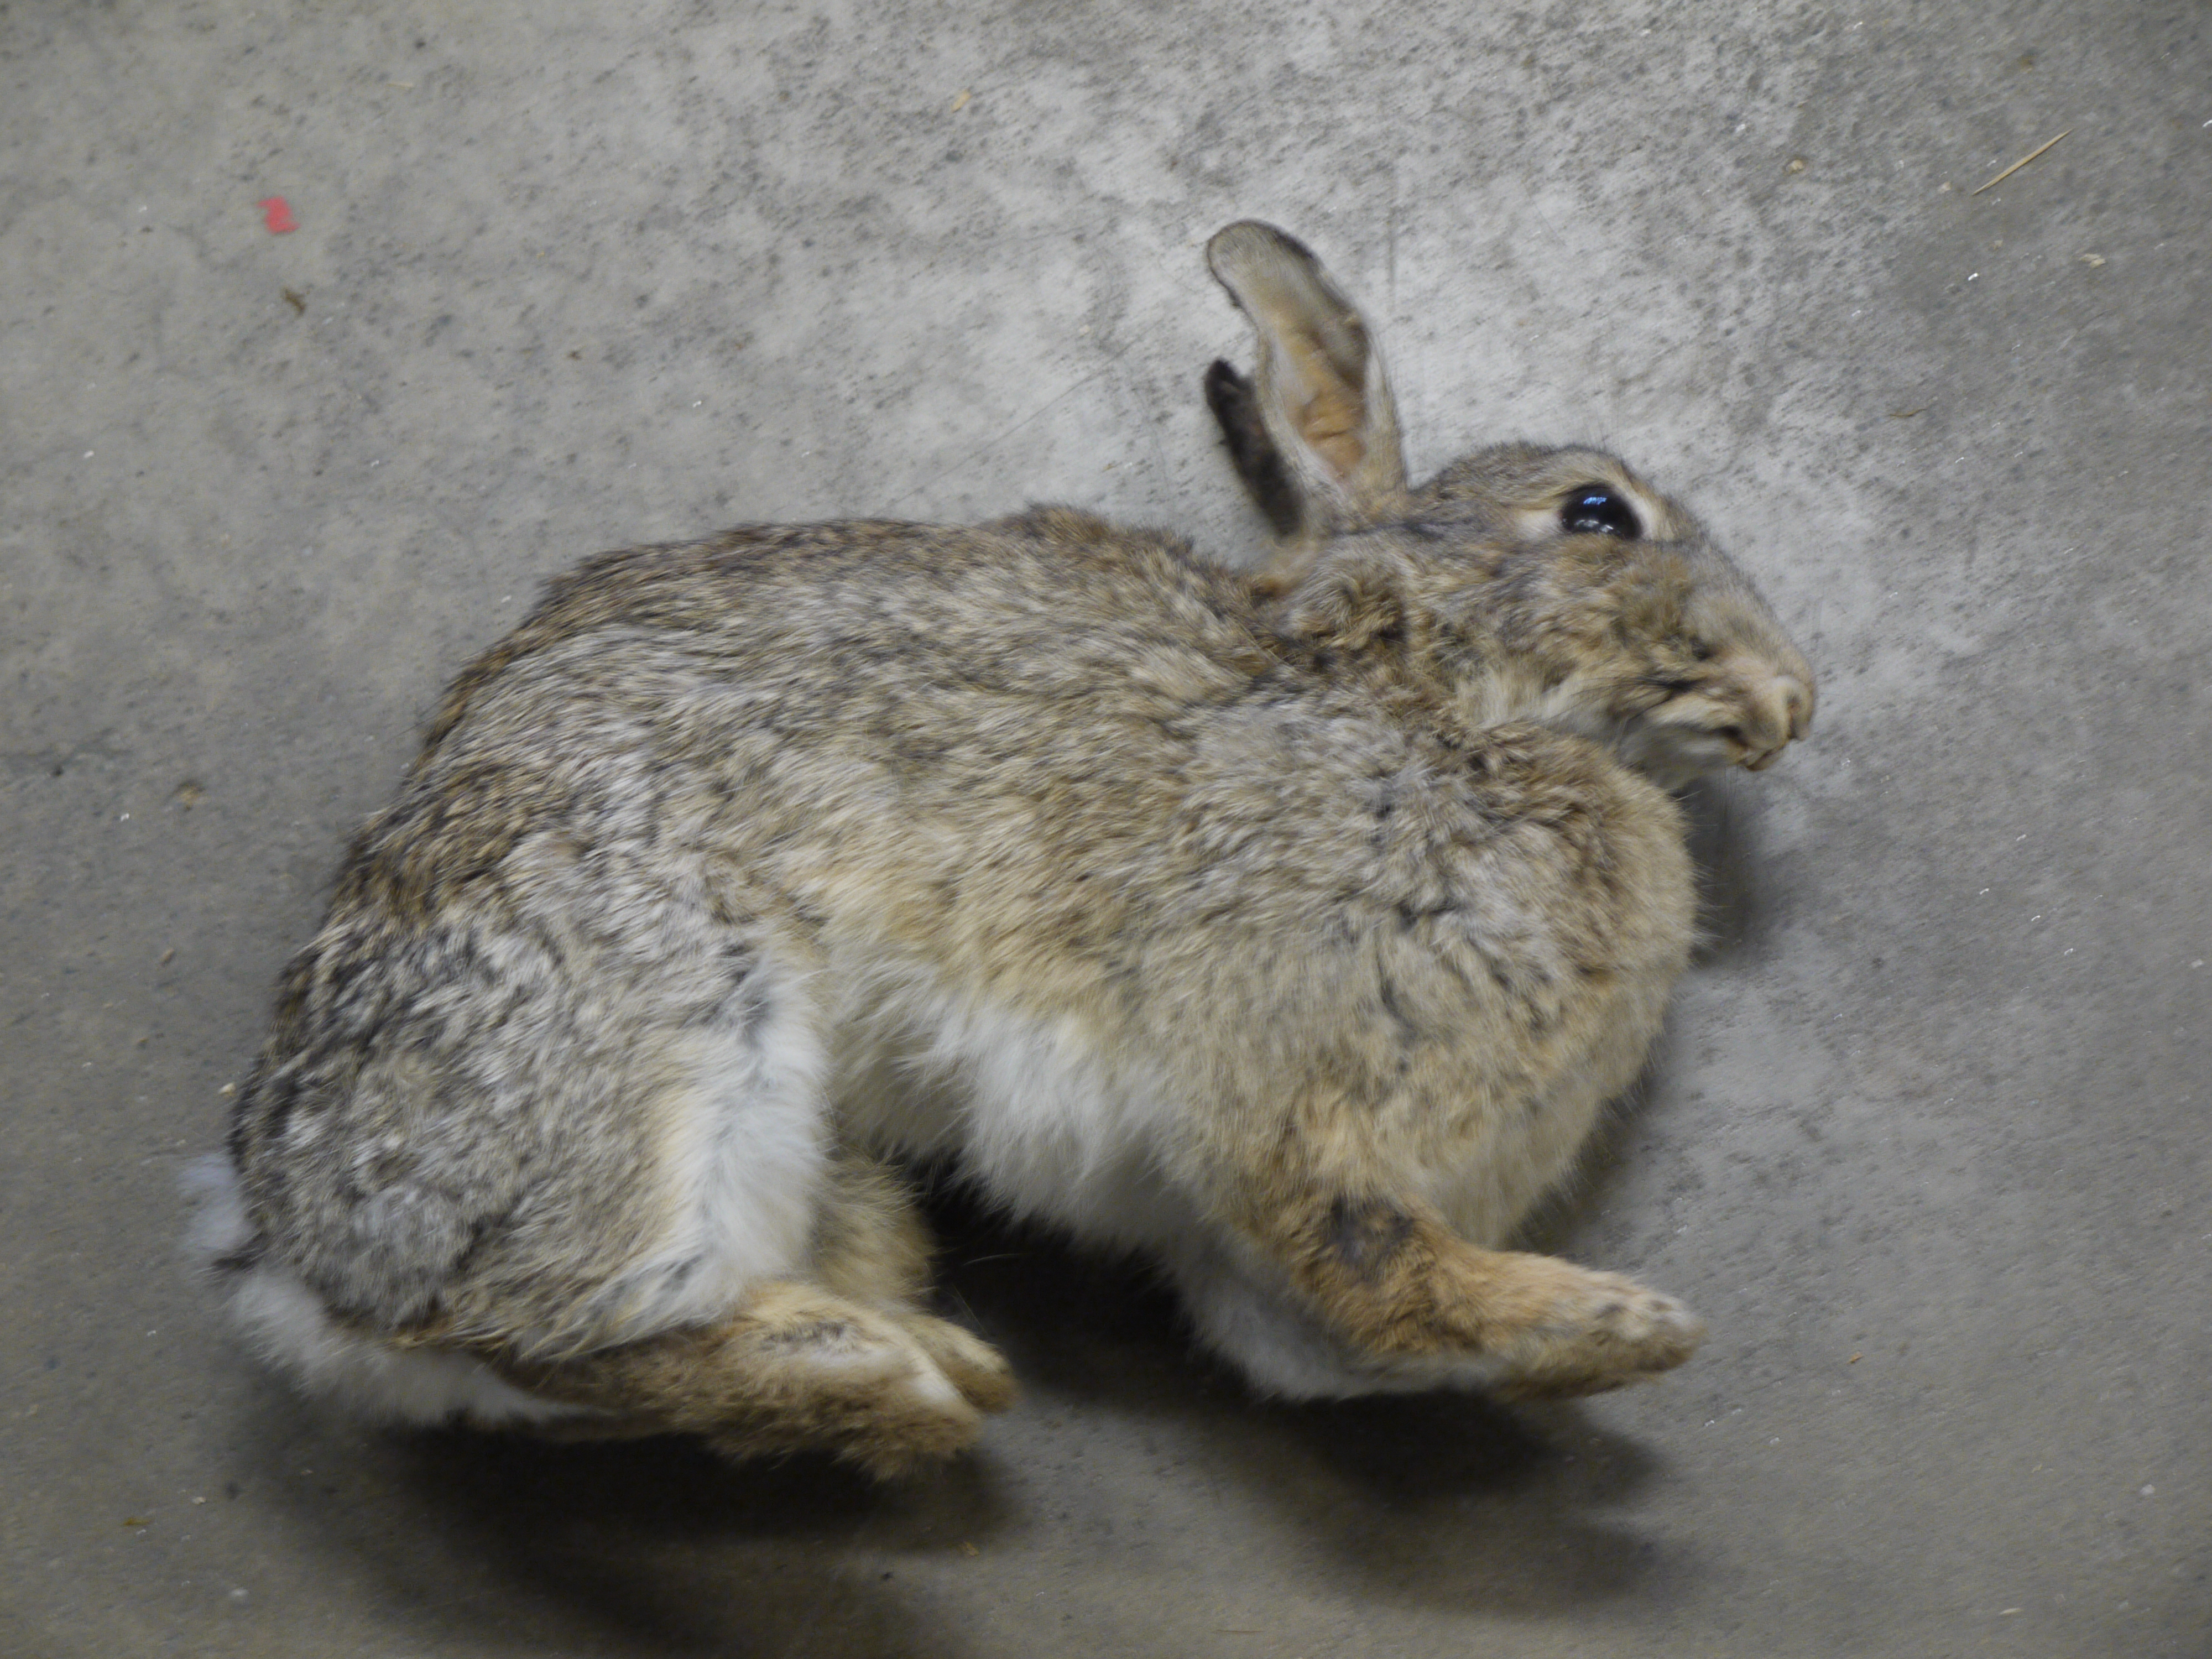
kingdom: Animalia
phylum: Chordata
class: Mammalia
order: Lagomorpha
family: Leporidae
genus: Oryctolagus
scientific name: Oryctolagus cuniculus
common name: European rabbit
